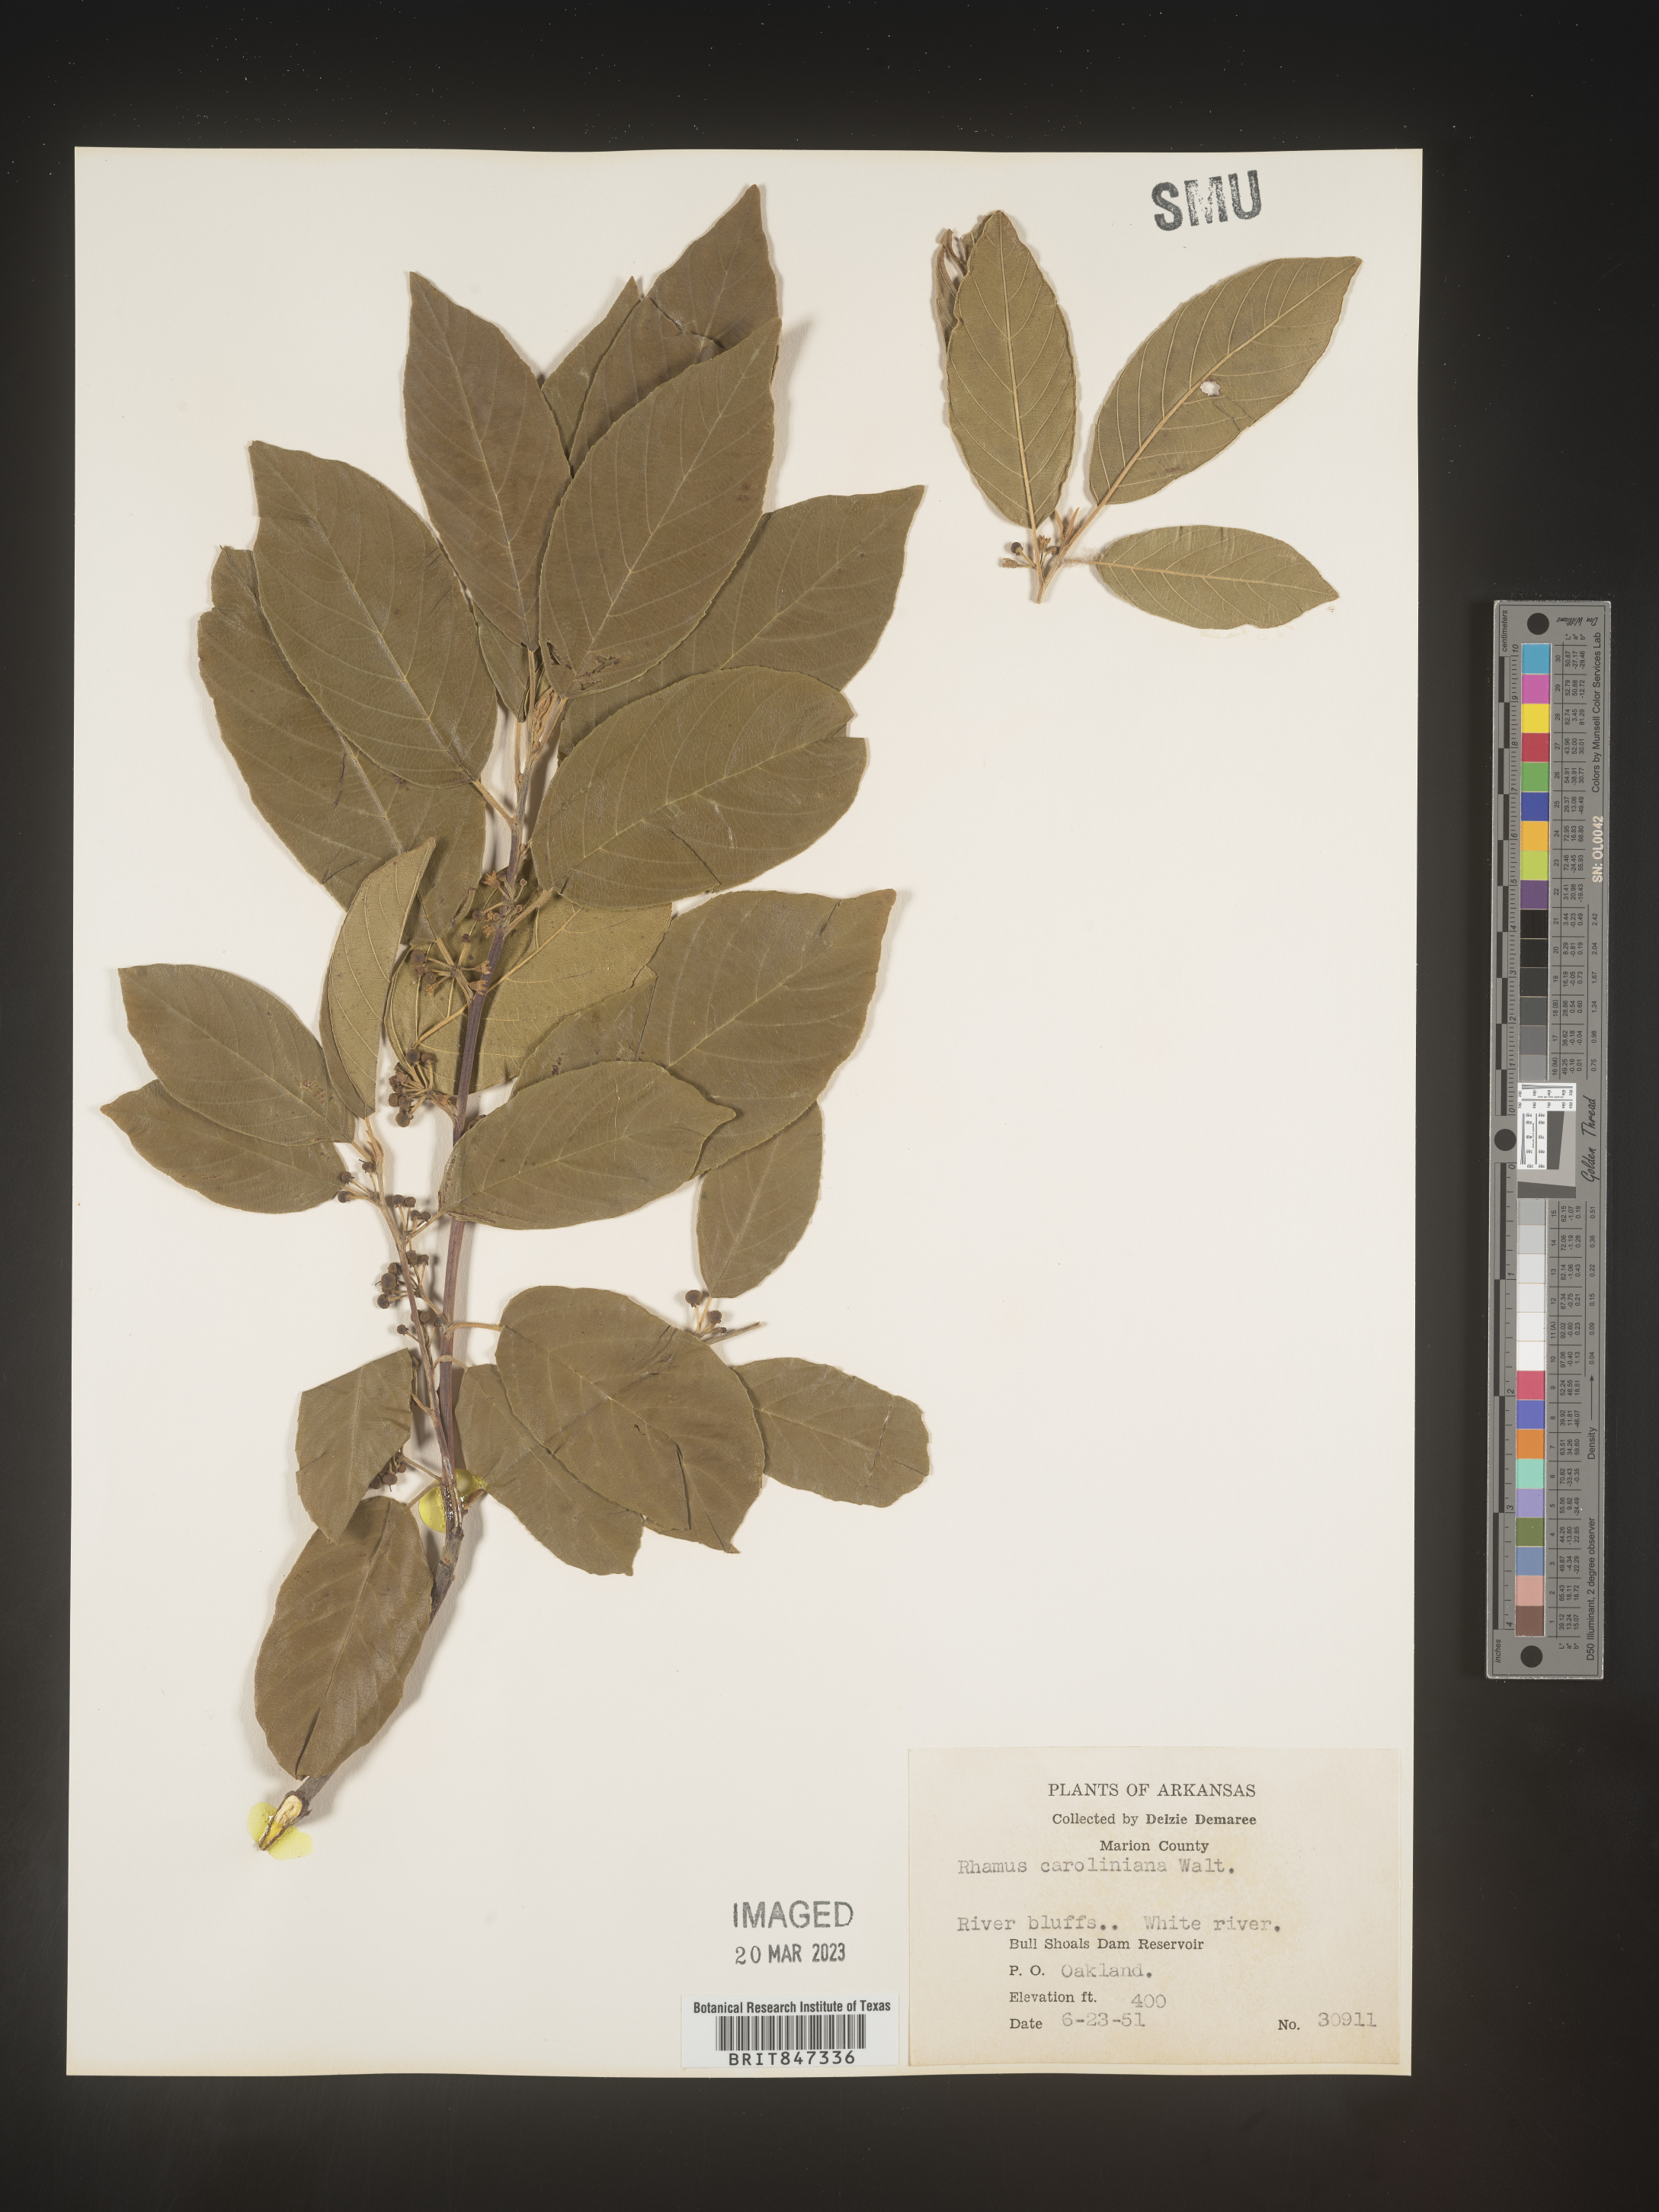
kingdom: Plantae
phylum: Tracheophyta
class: Magnoliopsida
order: Rosales
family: Rhamnaceae
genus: Frangula
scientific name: Frangula caroliniana
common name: Carolina buckthorn
